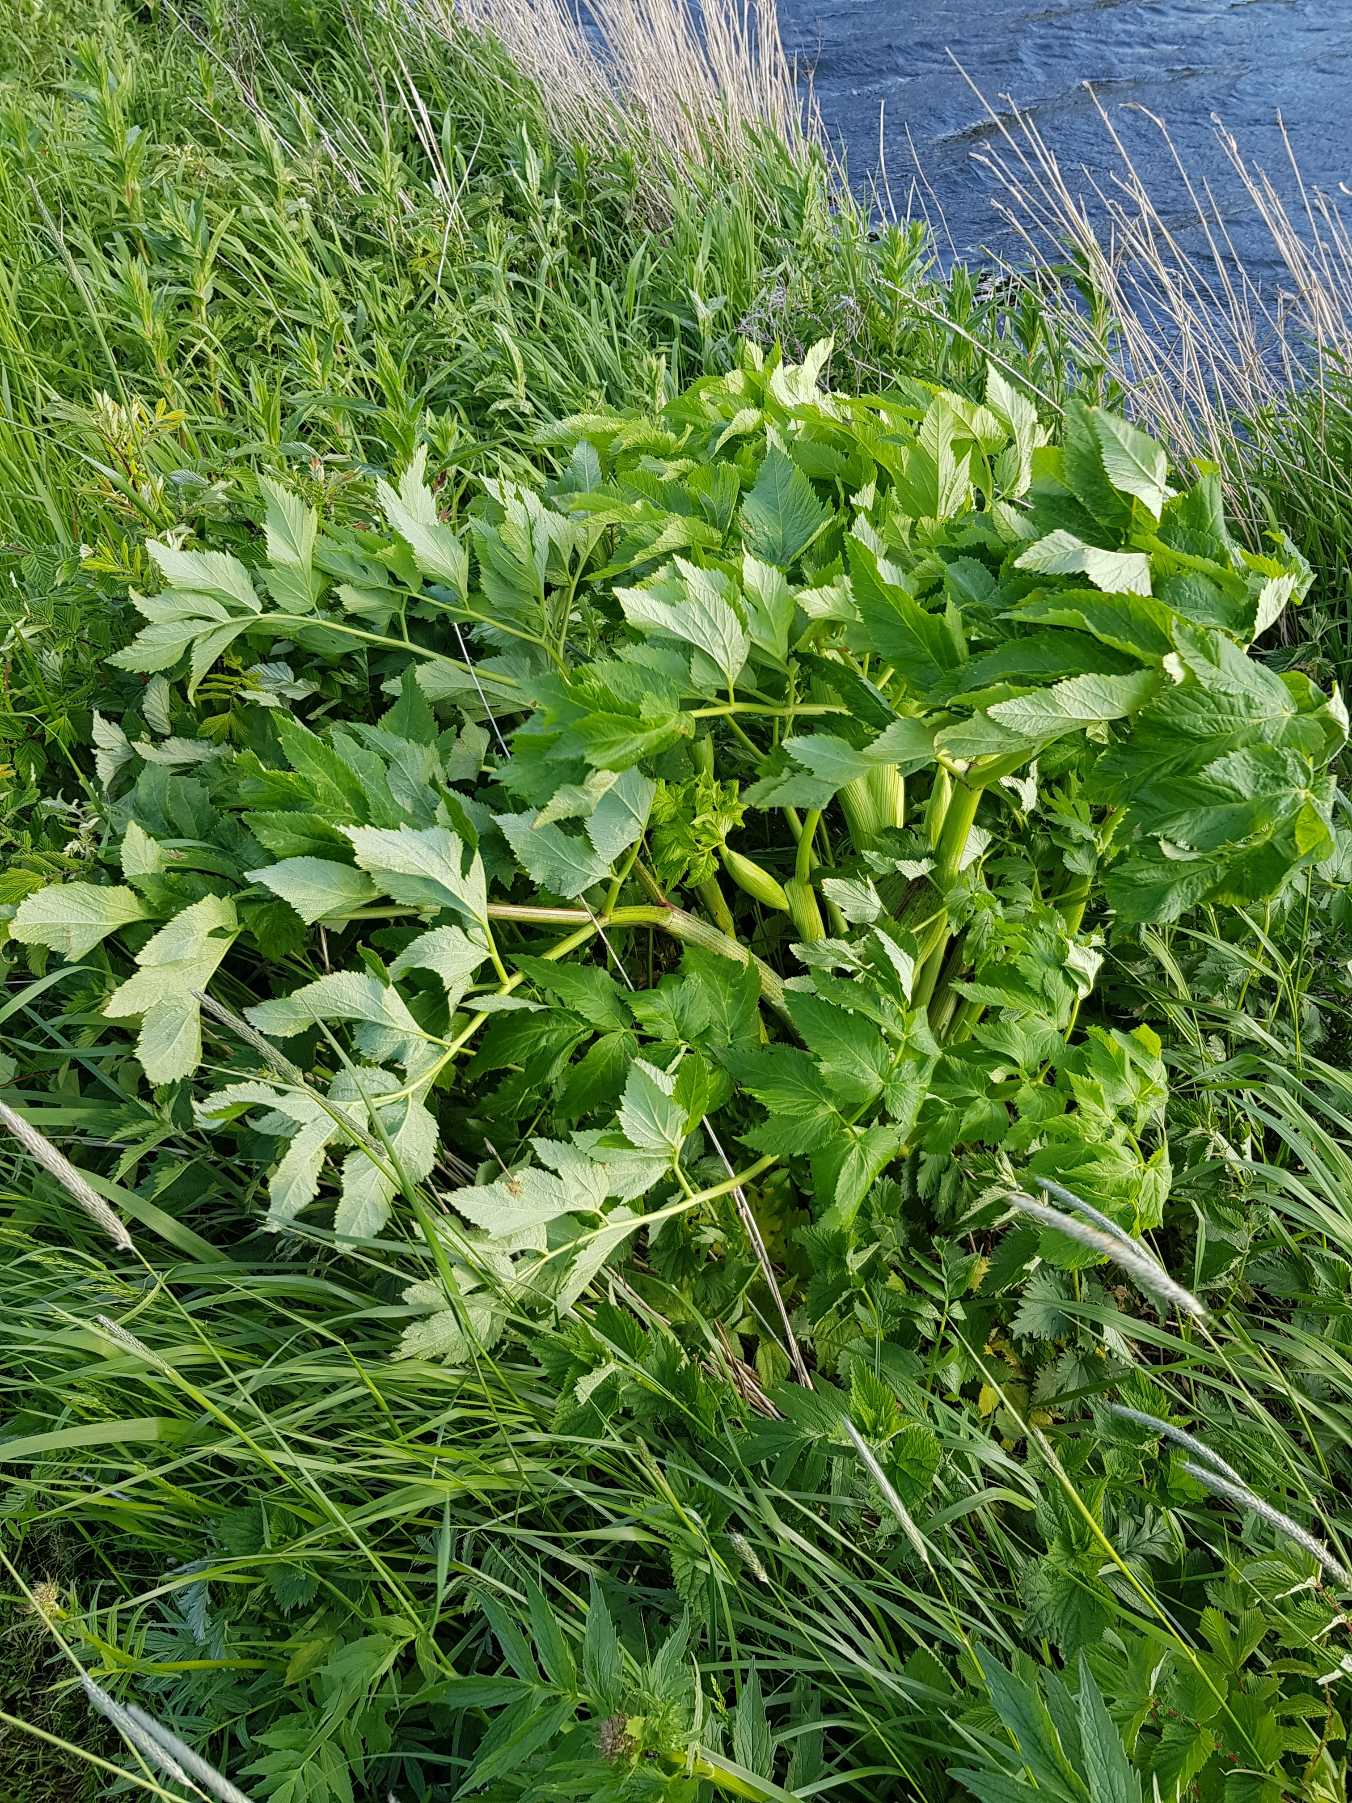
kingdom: Plantae
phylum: Tracheophyta
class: Magnoliopsida
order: Apiales
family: Apiaceae
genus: Angelica
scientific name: Angelica archangelica
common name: Kvan
